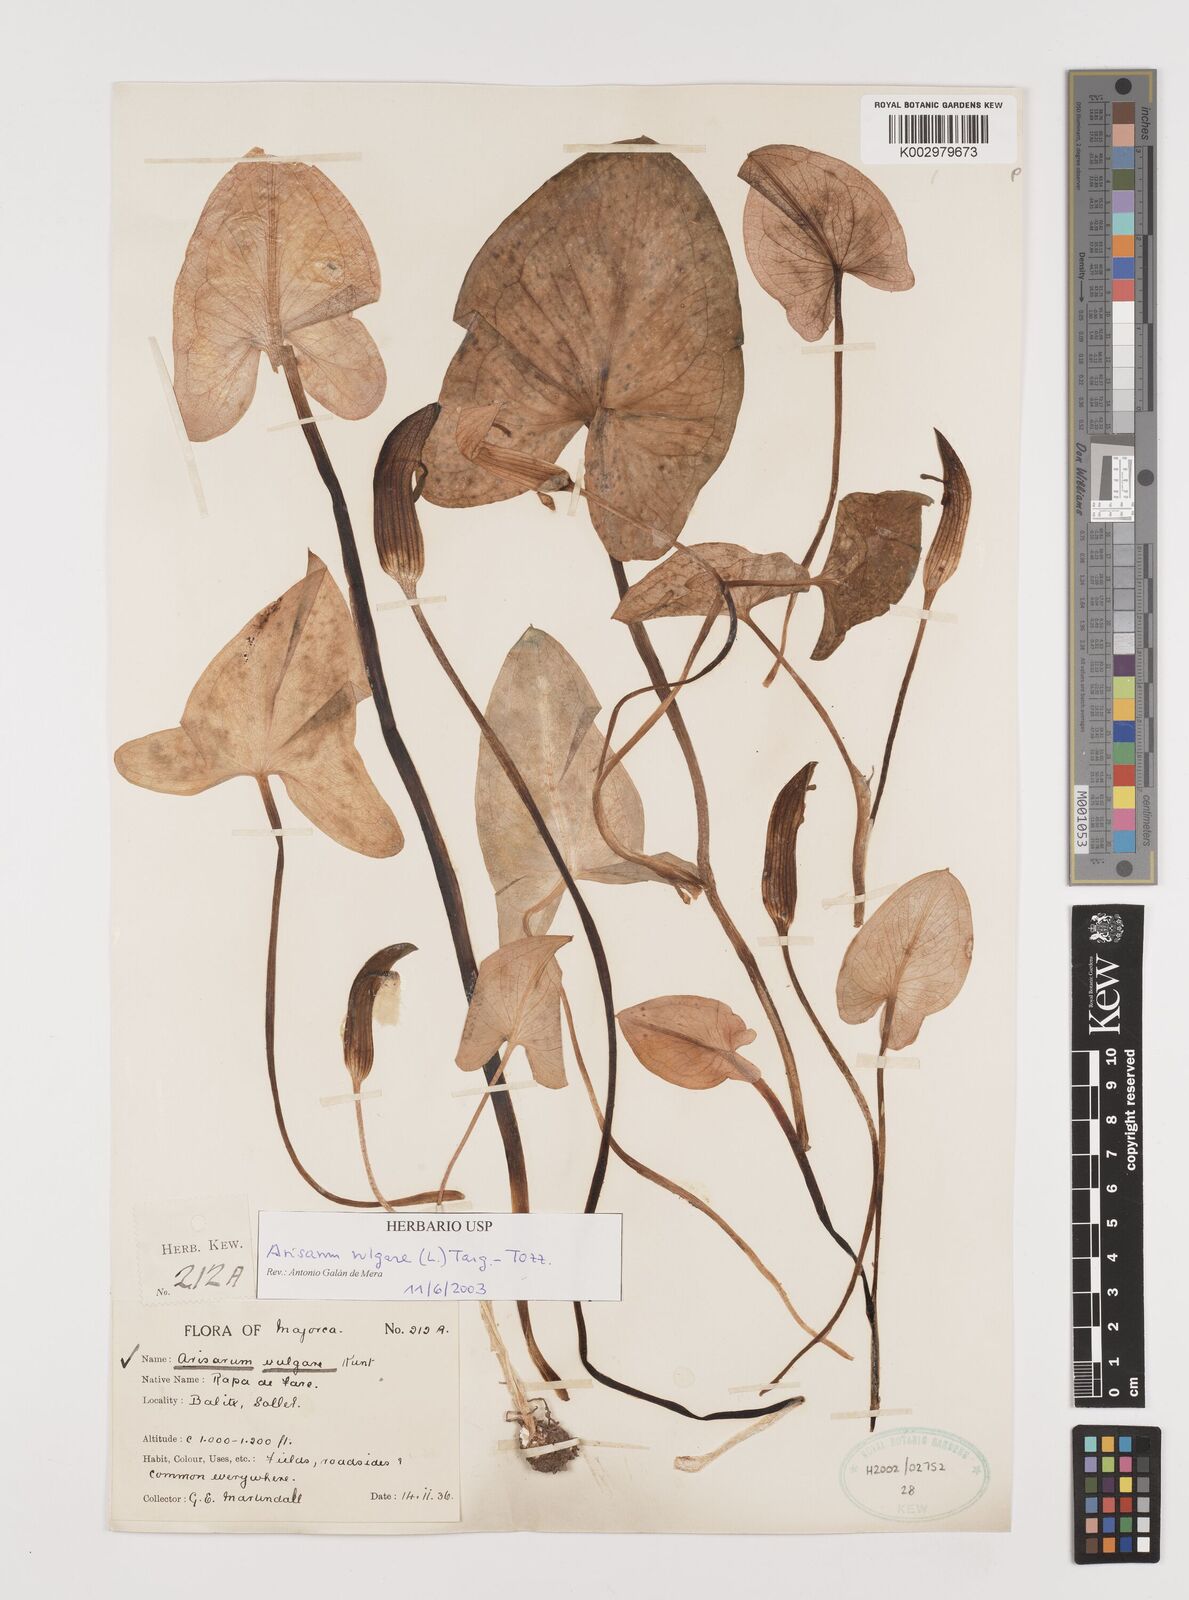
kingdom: Plantae
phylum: Tracheophyta
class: Liliopsida
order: Alismatales
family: Araceae
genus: Arisarum
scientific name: Arisarum vulgare
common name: Common arisarum
